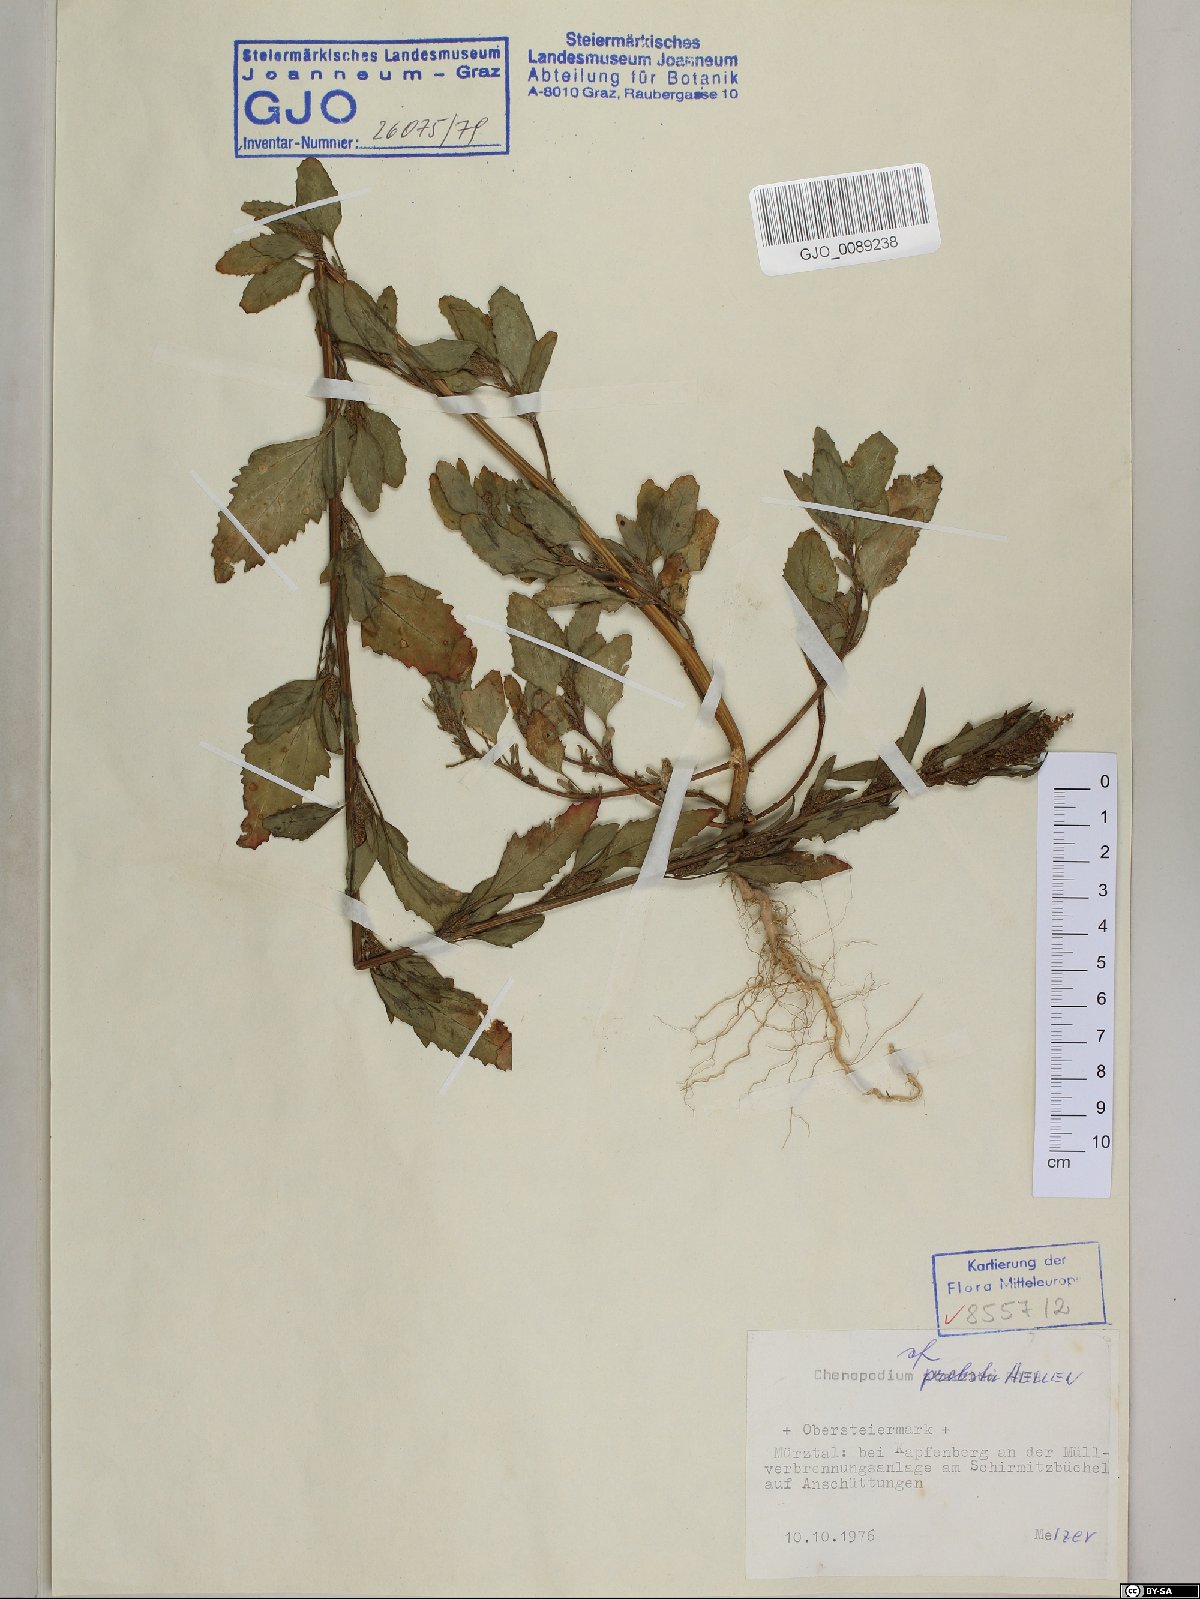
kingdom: Plantae
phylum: Tracheophyta
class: Magnoliopsida
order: Caryophyllales
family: Amaranthaceae
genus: Chenopodium
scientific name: Chenopodium probstii
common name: Probst's goosefoot
